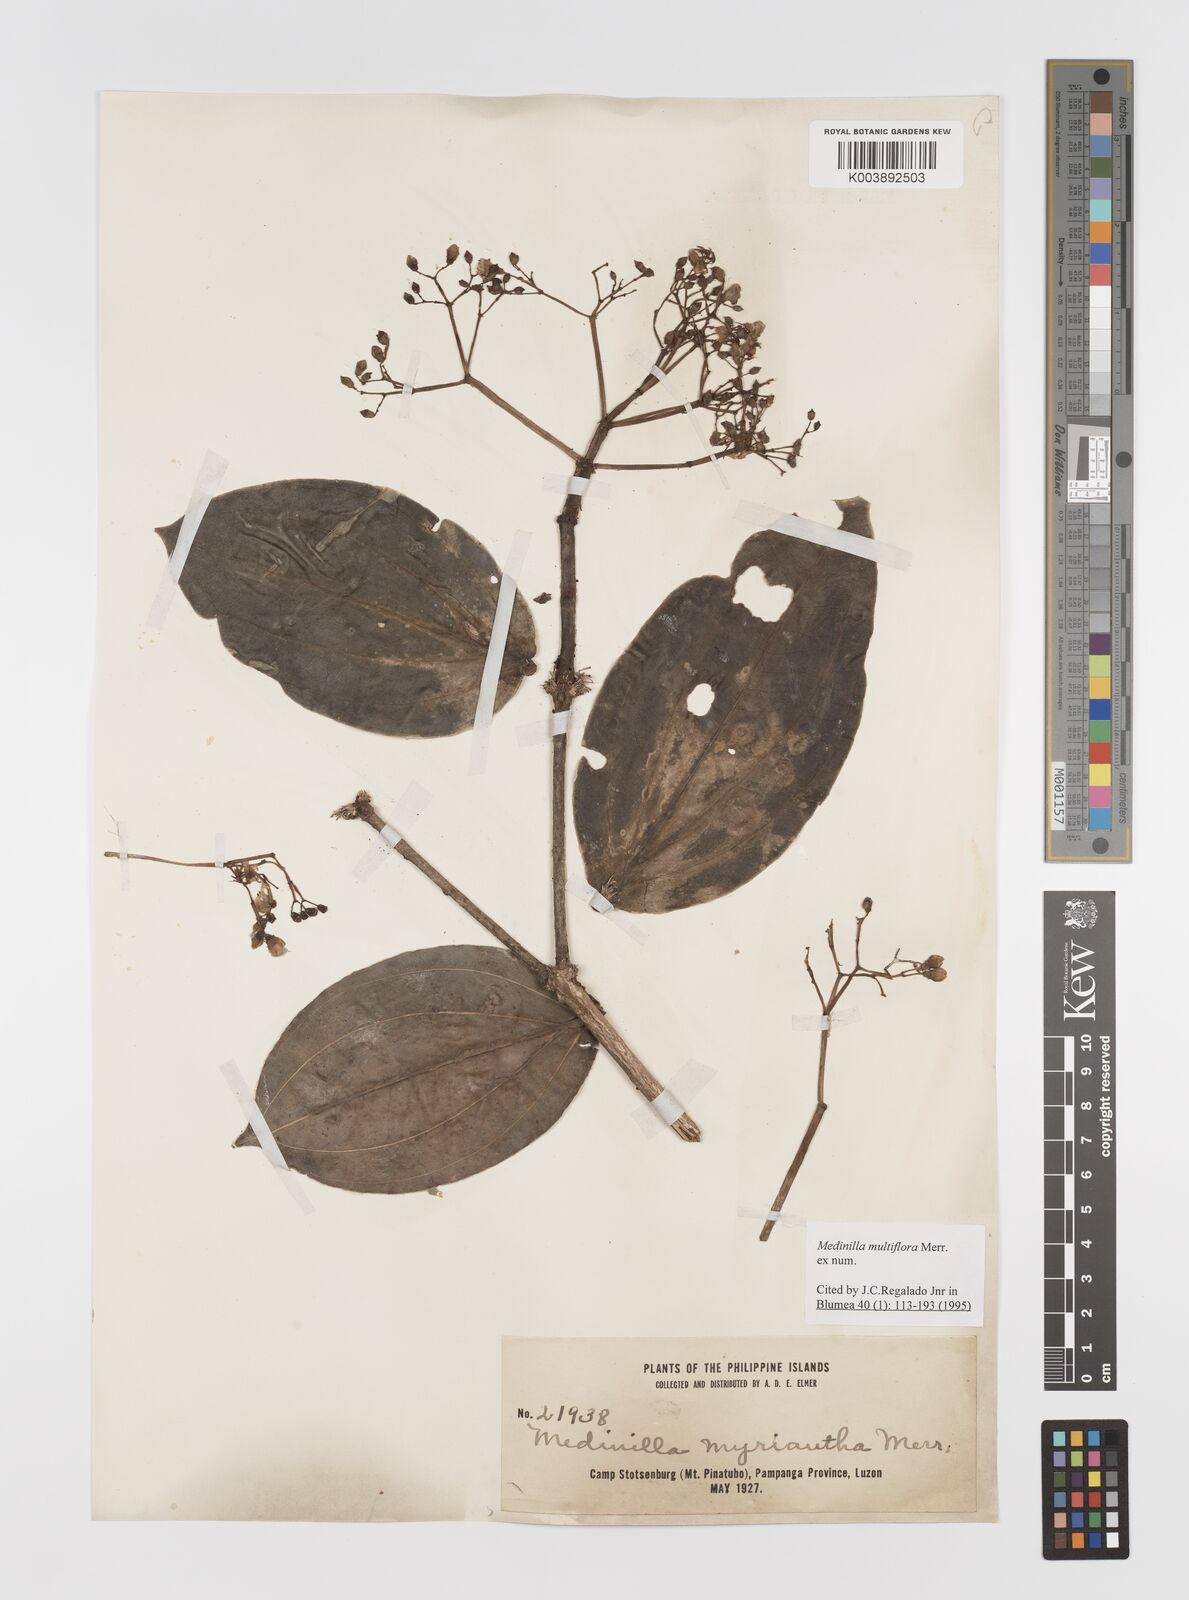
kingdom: Plantae
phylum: Tracheophyta
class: Magnoliopsida
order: Myrtales
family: Melastomataceae
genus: Medinilla
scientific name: Medinilla multiflora
